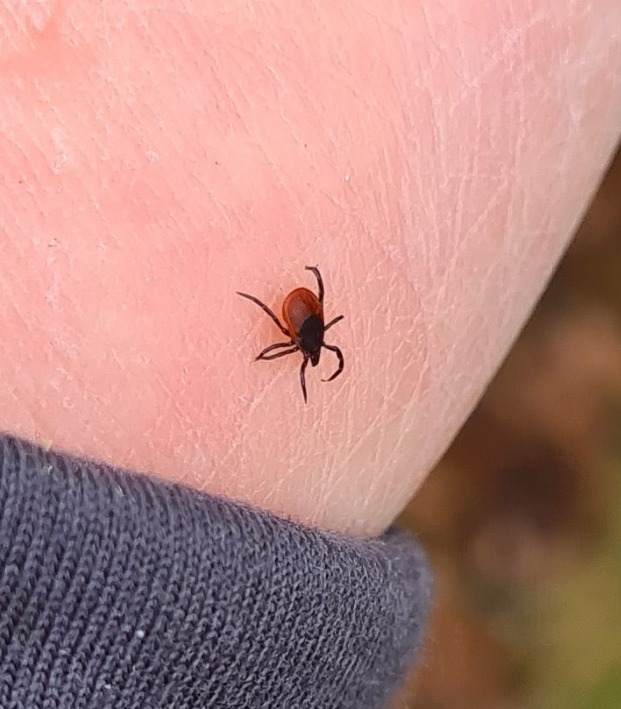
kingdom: Animalia
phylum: Arthropoda
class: Arachnida
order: Ixodida
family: Ixodidae
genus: Ixodes
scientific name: Ixodes ricinus
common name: Skovflåt
